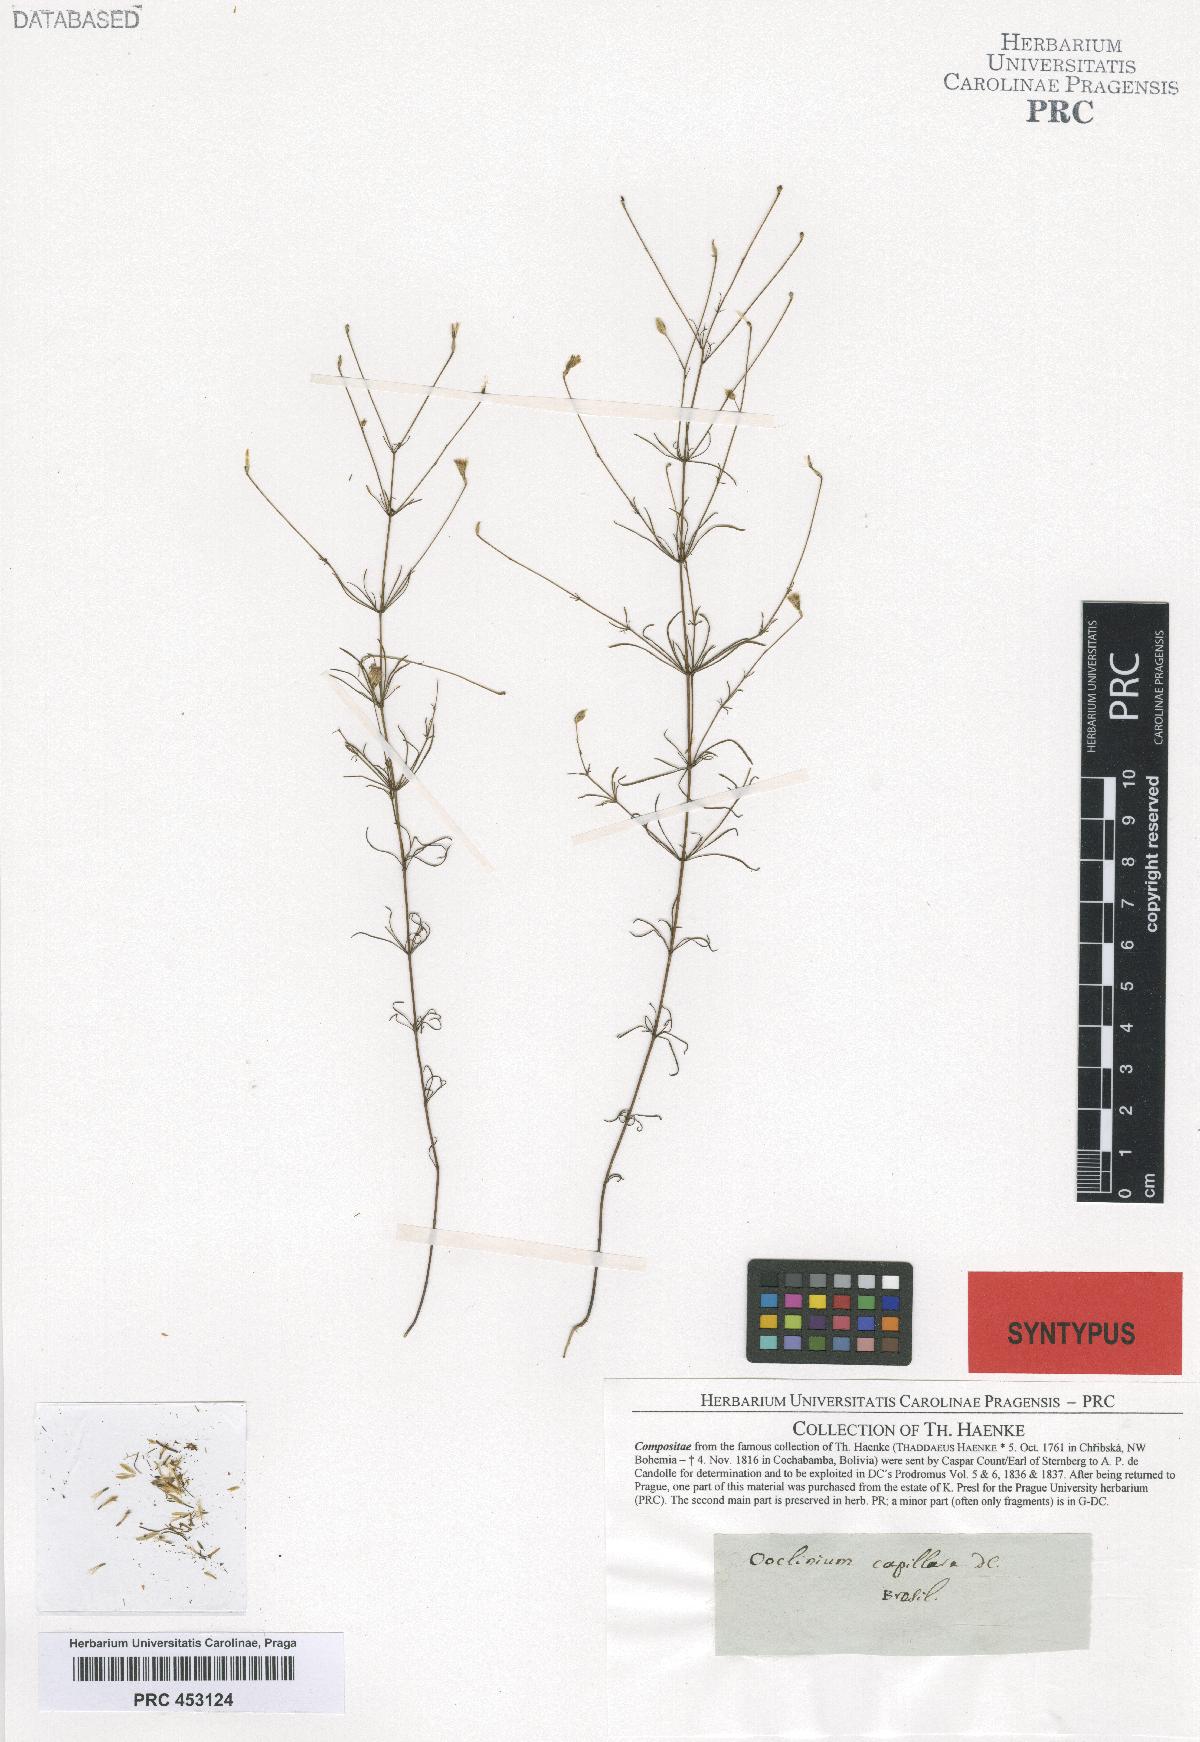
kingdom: Plantae
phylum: Tracheophyta
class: Magnoliopsida
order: Asterales
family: Asteraceae
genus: Praxelis
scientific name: Praxelis capillaris
